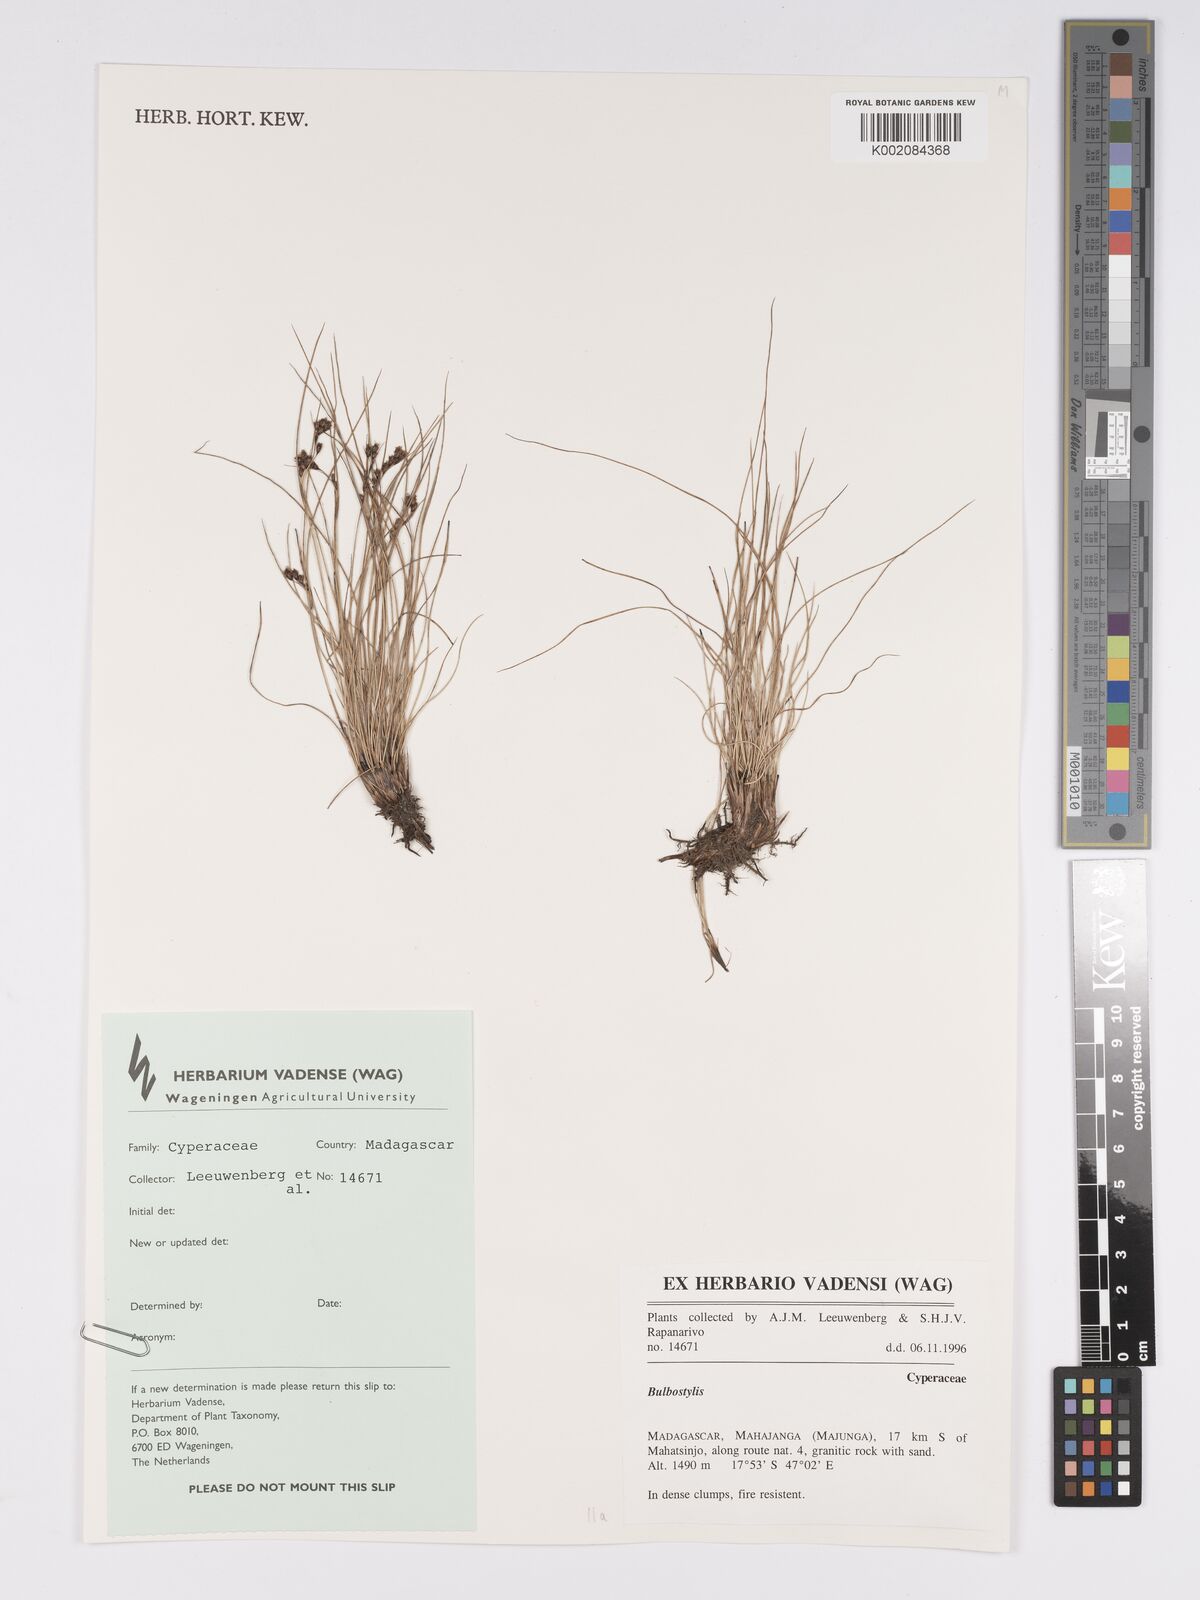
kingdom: Plantae
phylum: Tracheophyta
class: Liliopsida
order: Poales
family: Cyperaceae
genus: Bulbostylis
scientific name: Bulbostylis
